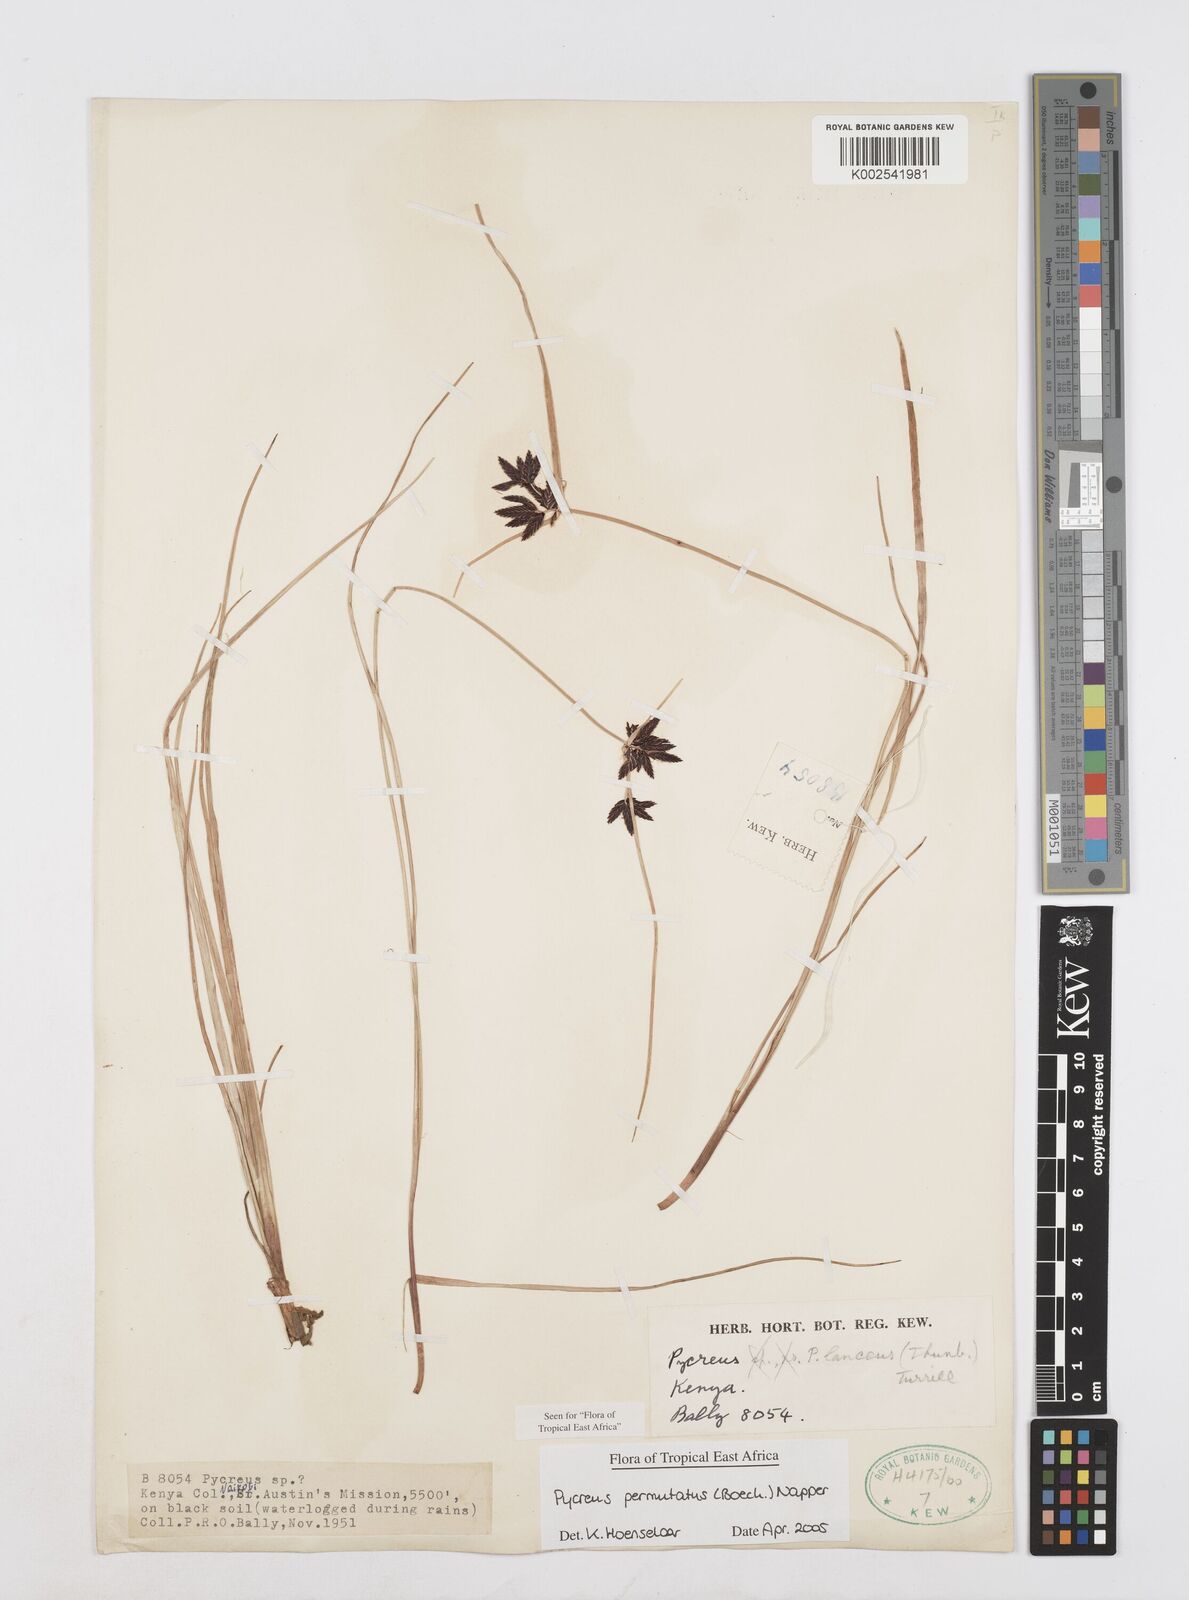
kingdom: Plantae
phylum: Tracheophyta
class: Liliopsida
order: Poales
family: Cyperaceae
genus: Cyperus
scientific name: Cyperus nigricans
